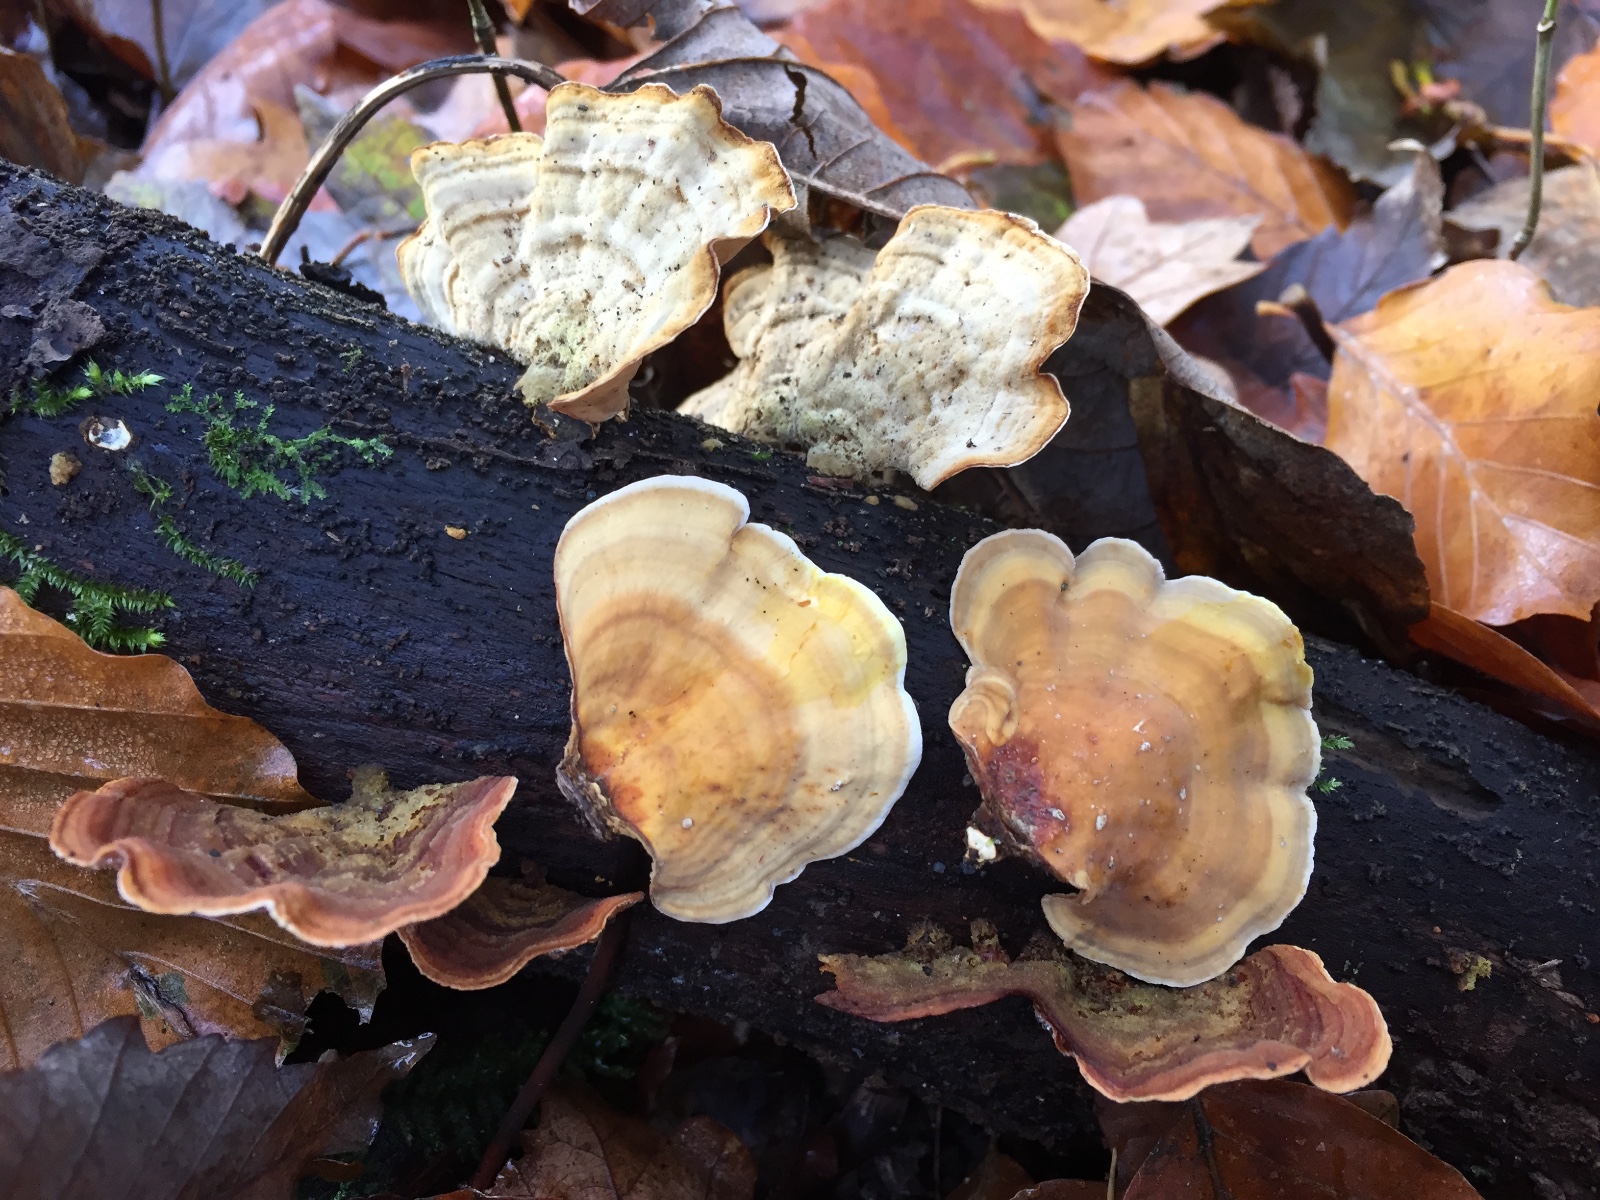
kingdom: Fungi
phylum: Basidiomycota
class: Agaricomycetes
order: Russulales
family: Stereaceae
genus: Stereum
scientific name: Stereum subtomentosum
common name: smuk lædersvamp
